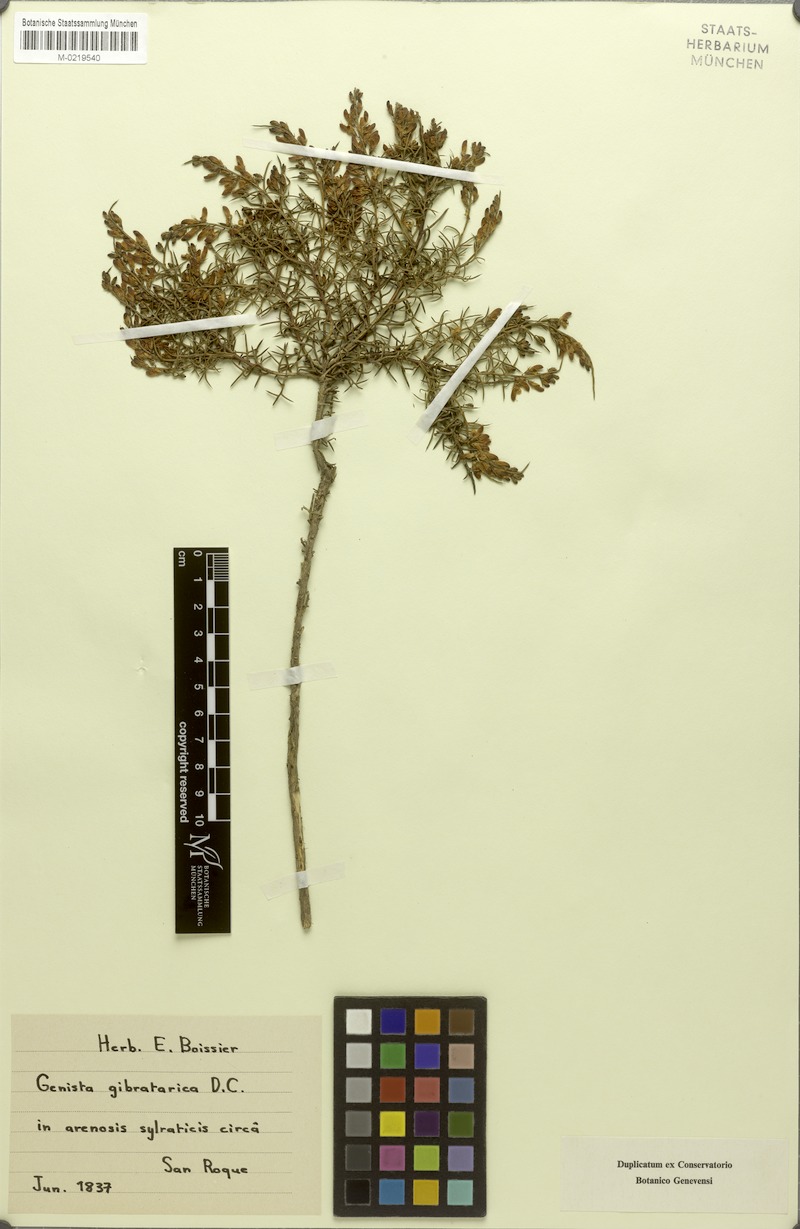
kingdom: Plantae
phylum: Tracheophyta
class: Magnoliopsida
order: Fabales
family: Fabaceae
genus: Genista
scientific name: Genista tridens
